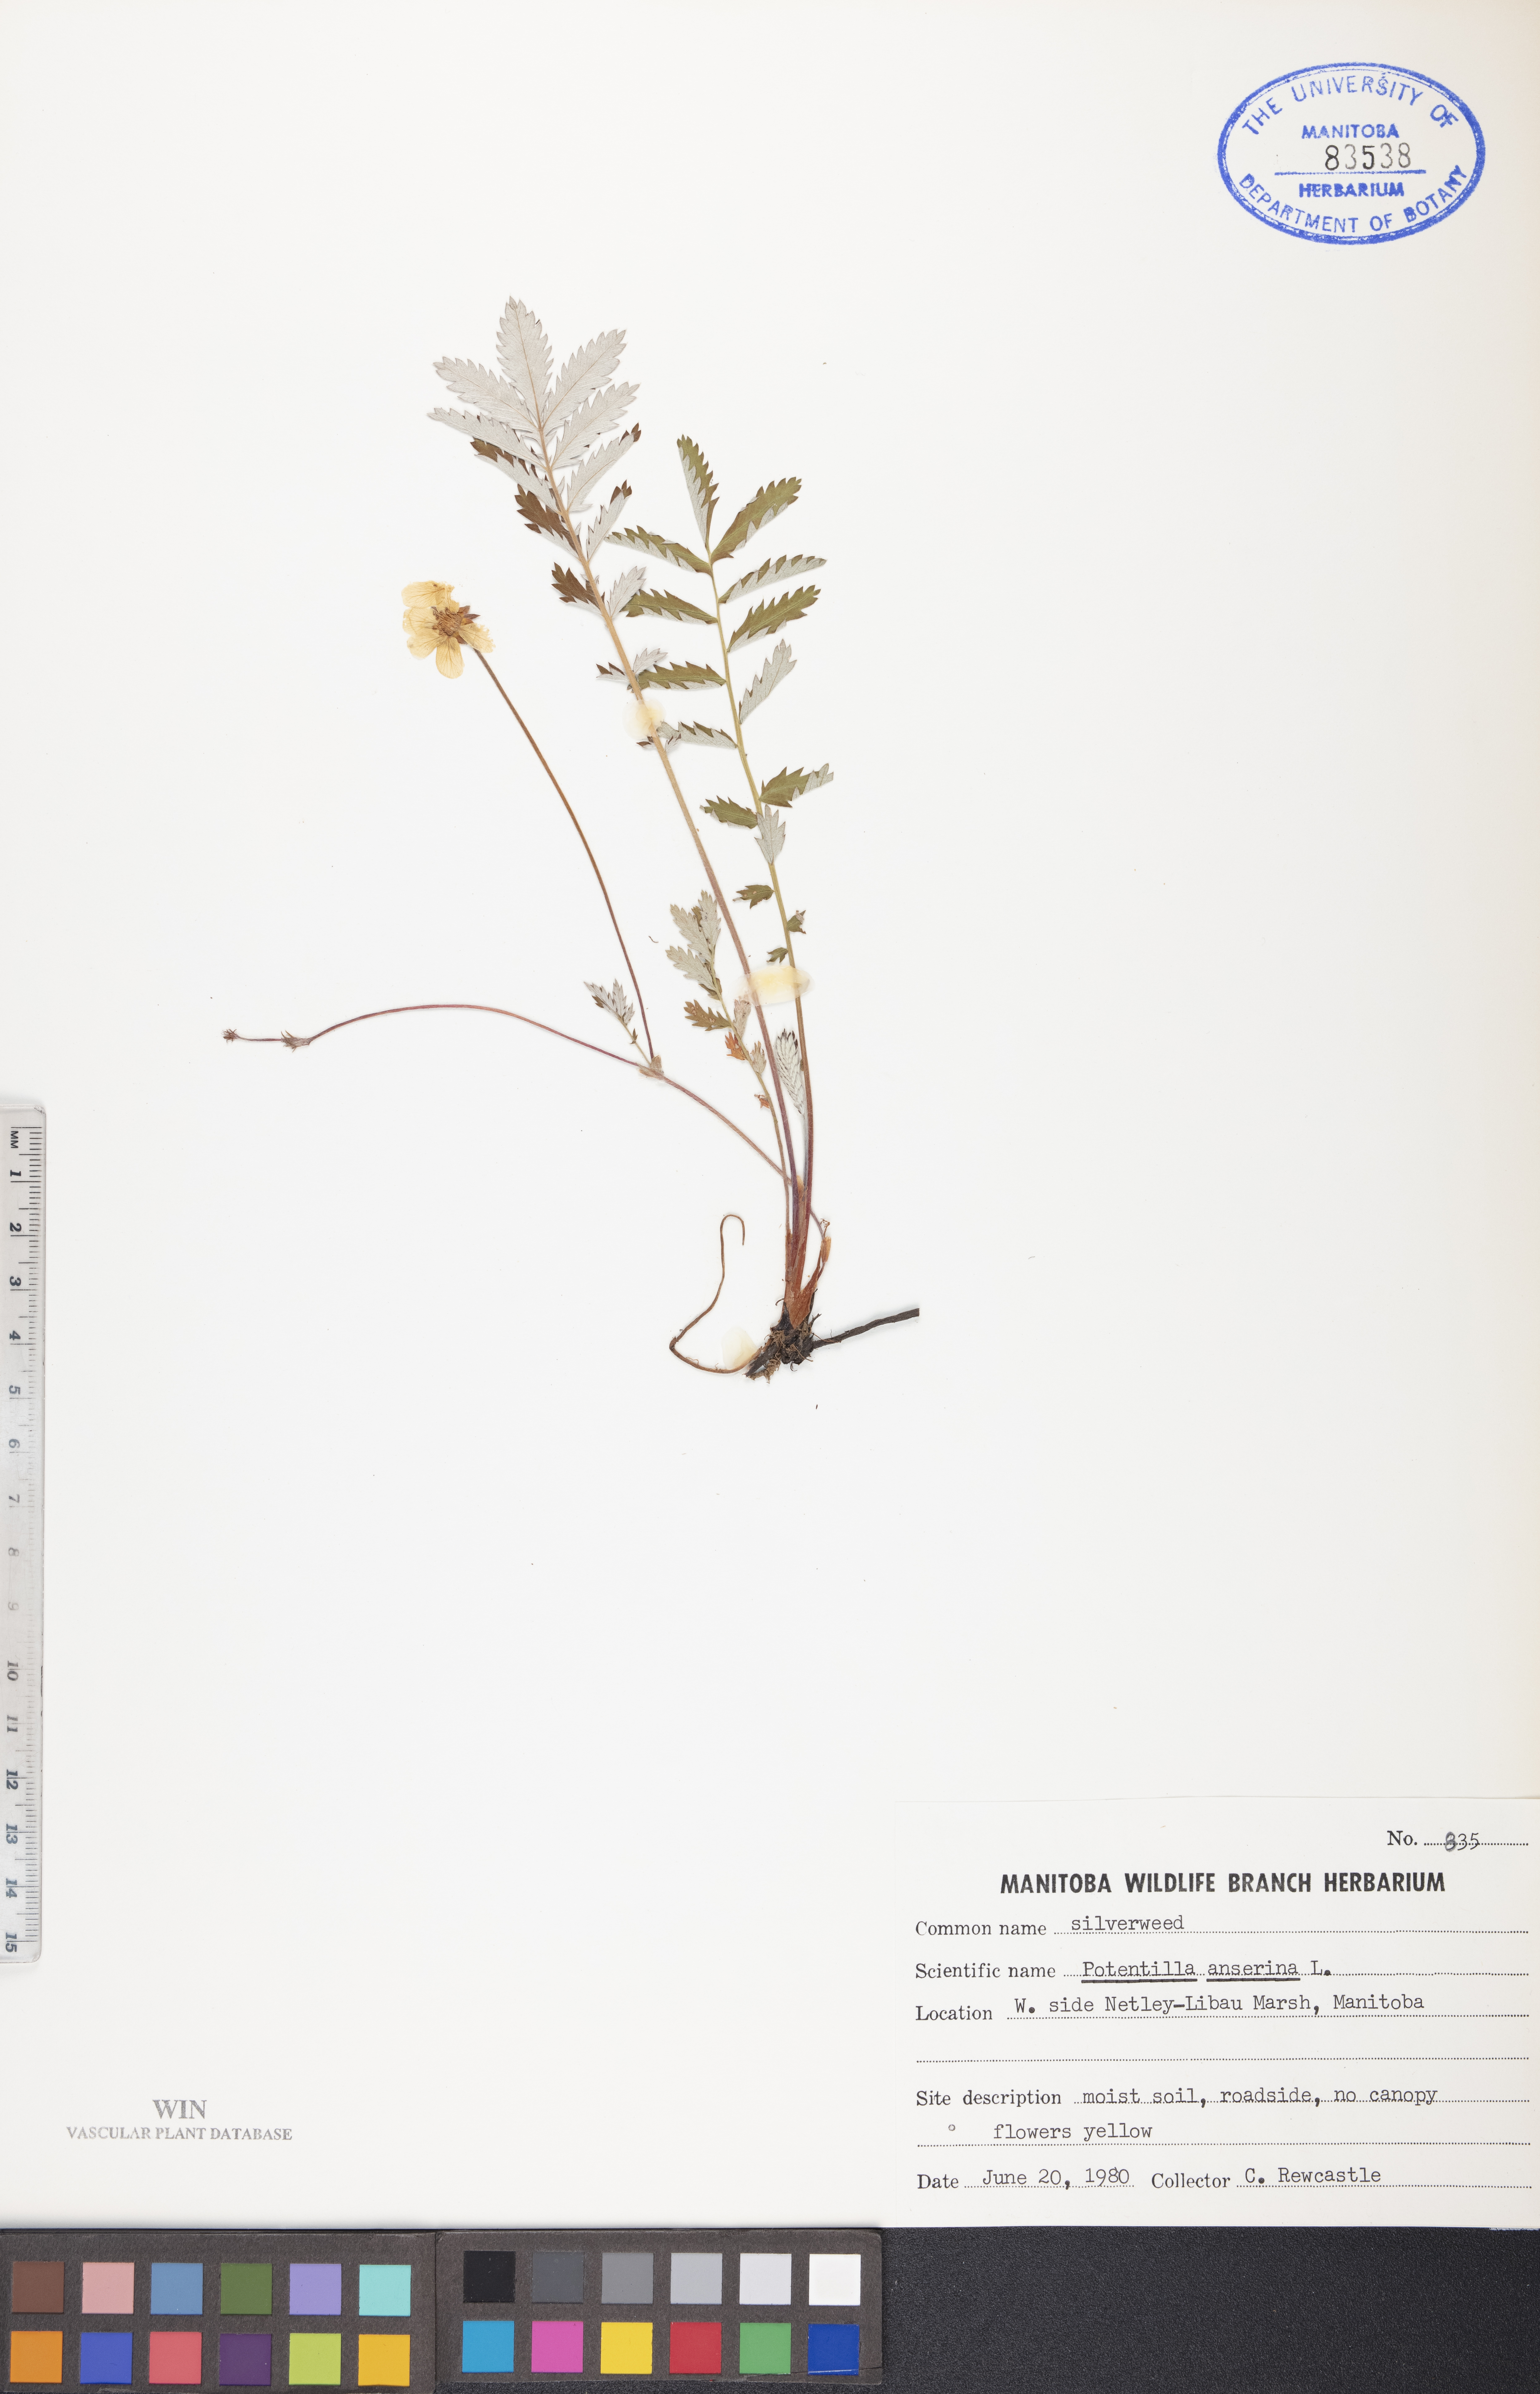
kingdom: Plantae
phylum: Tracheophyta
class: Magnoliopsida
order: Rosales
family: Rosaceae
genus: Argentina
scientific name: Argentina anserina
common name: Common silverweed
